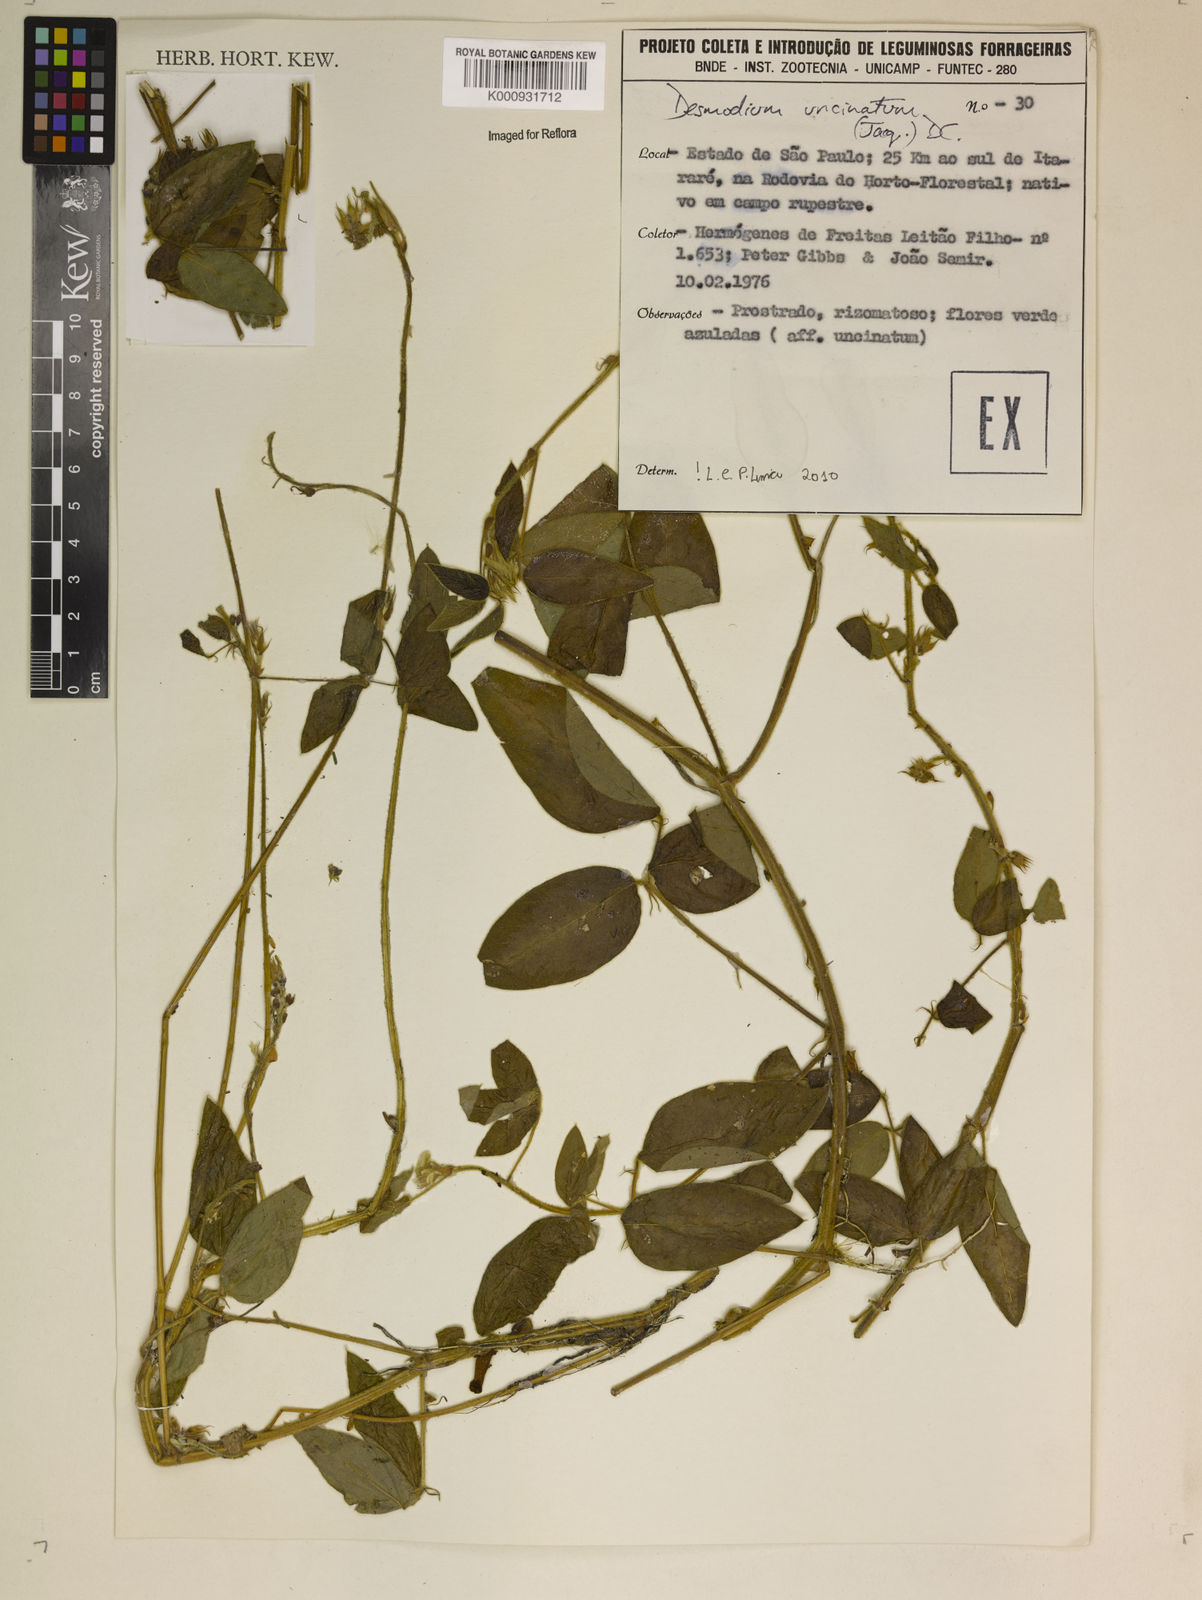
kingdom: Plantae
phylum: Tracheophyta
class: Magnoliopsida
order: Fabales
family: Fabaceae
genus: Desmodium
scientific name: Desmodium uncinatum
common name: Silverleaf desmodium
